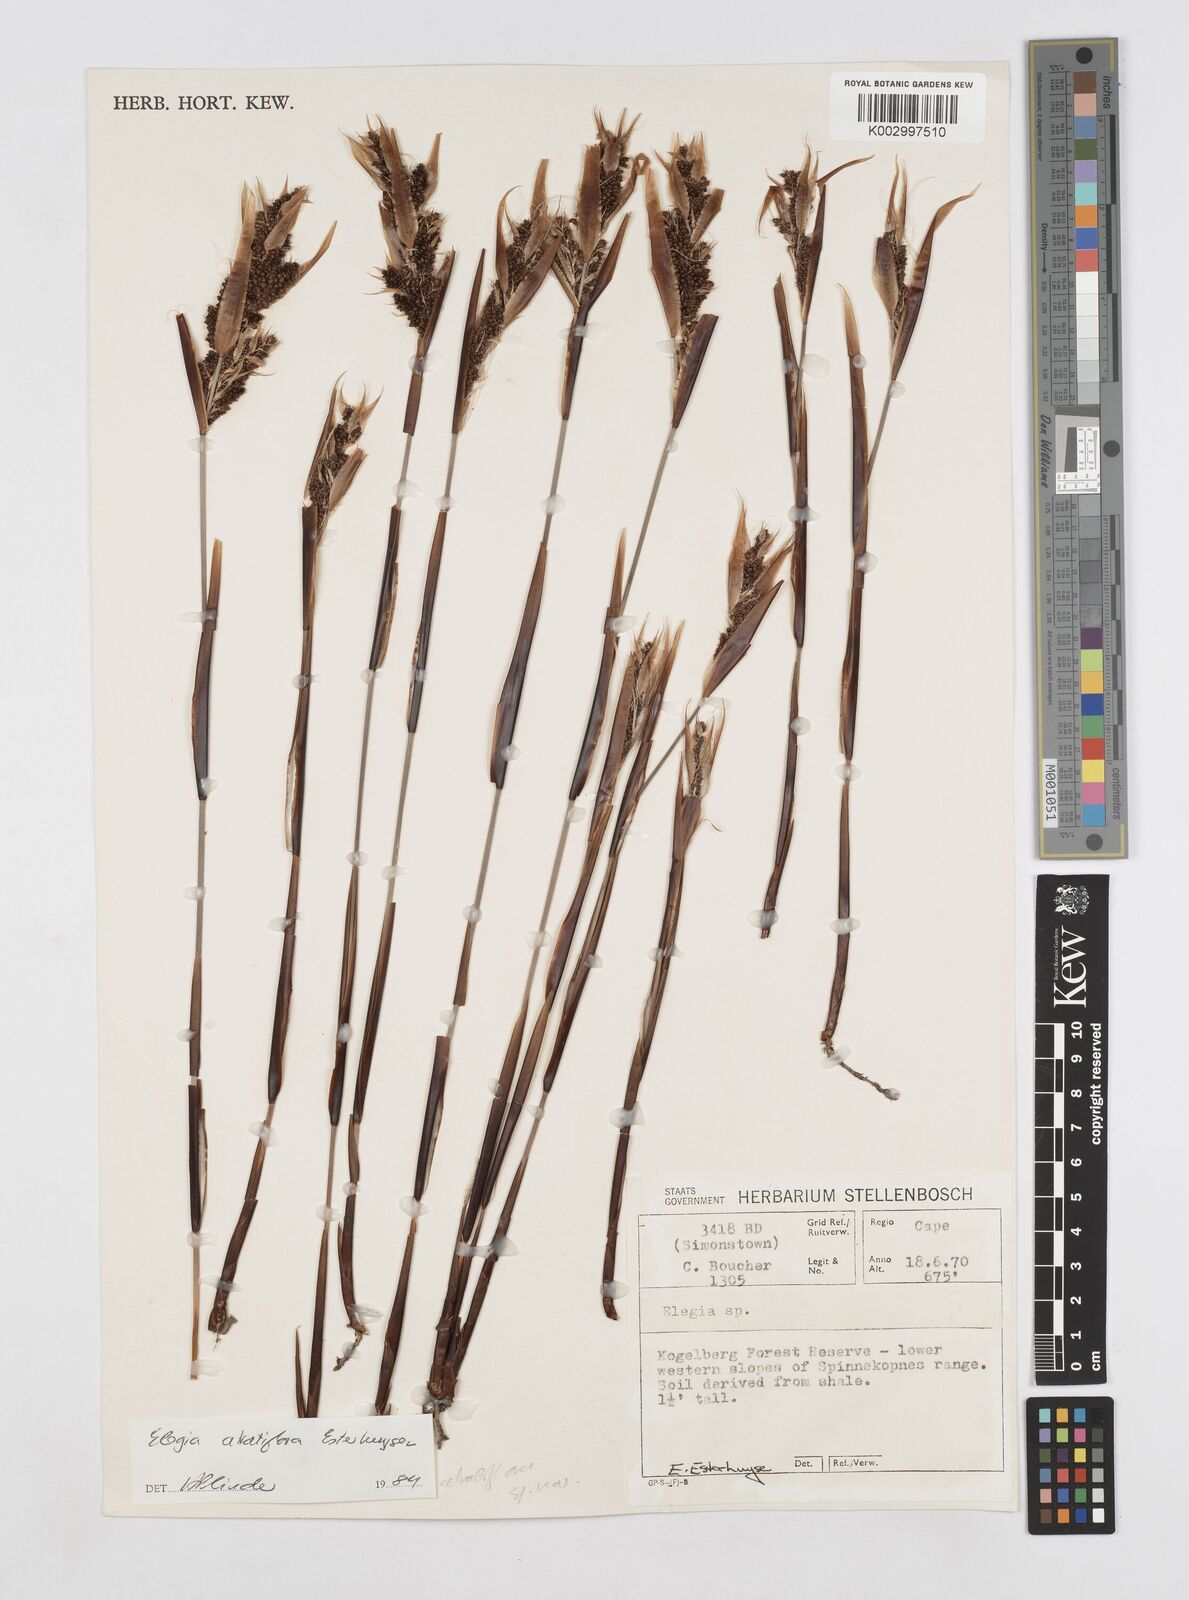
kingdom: Plantae
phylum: Tracheophyta
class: Liliopsida
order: Poales
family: Restionaceae
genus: Elegia
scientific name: Elegia atratiflora
